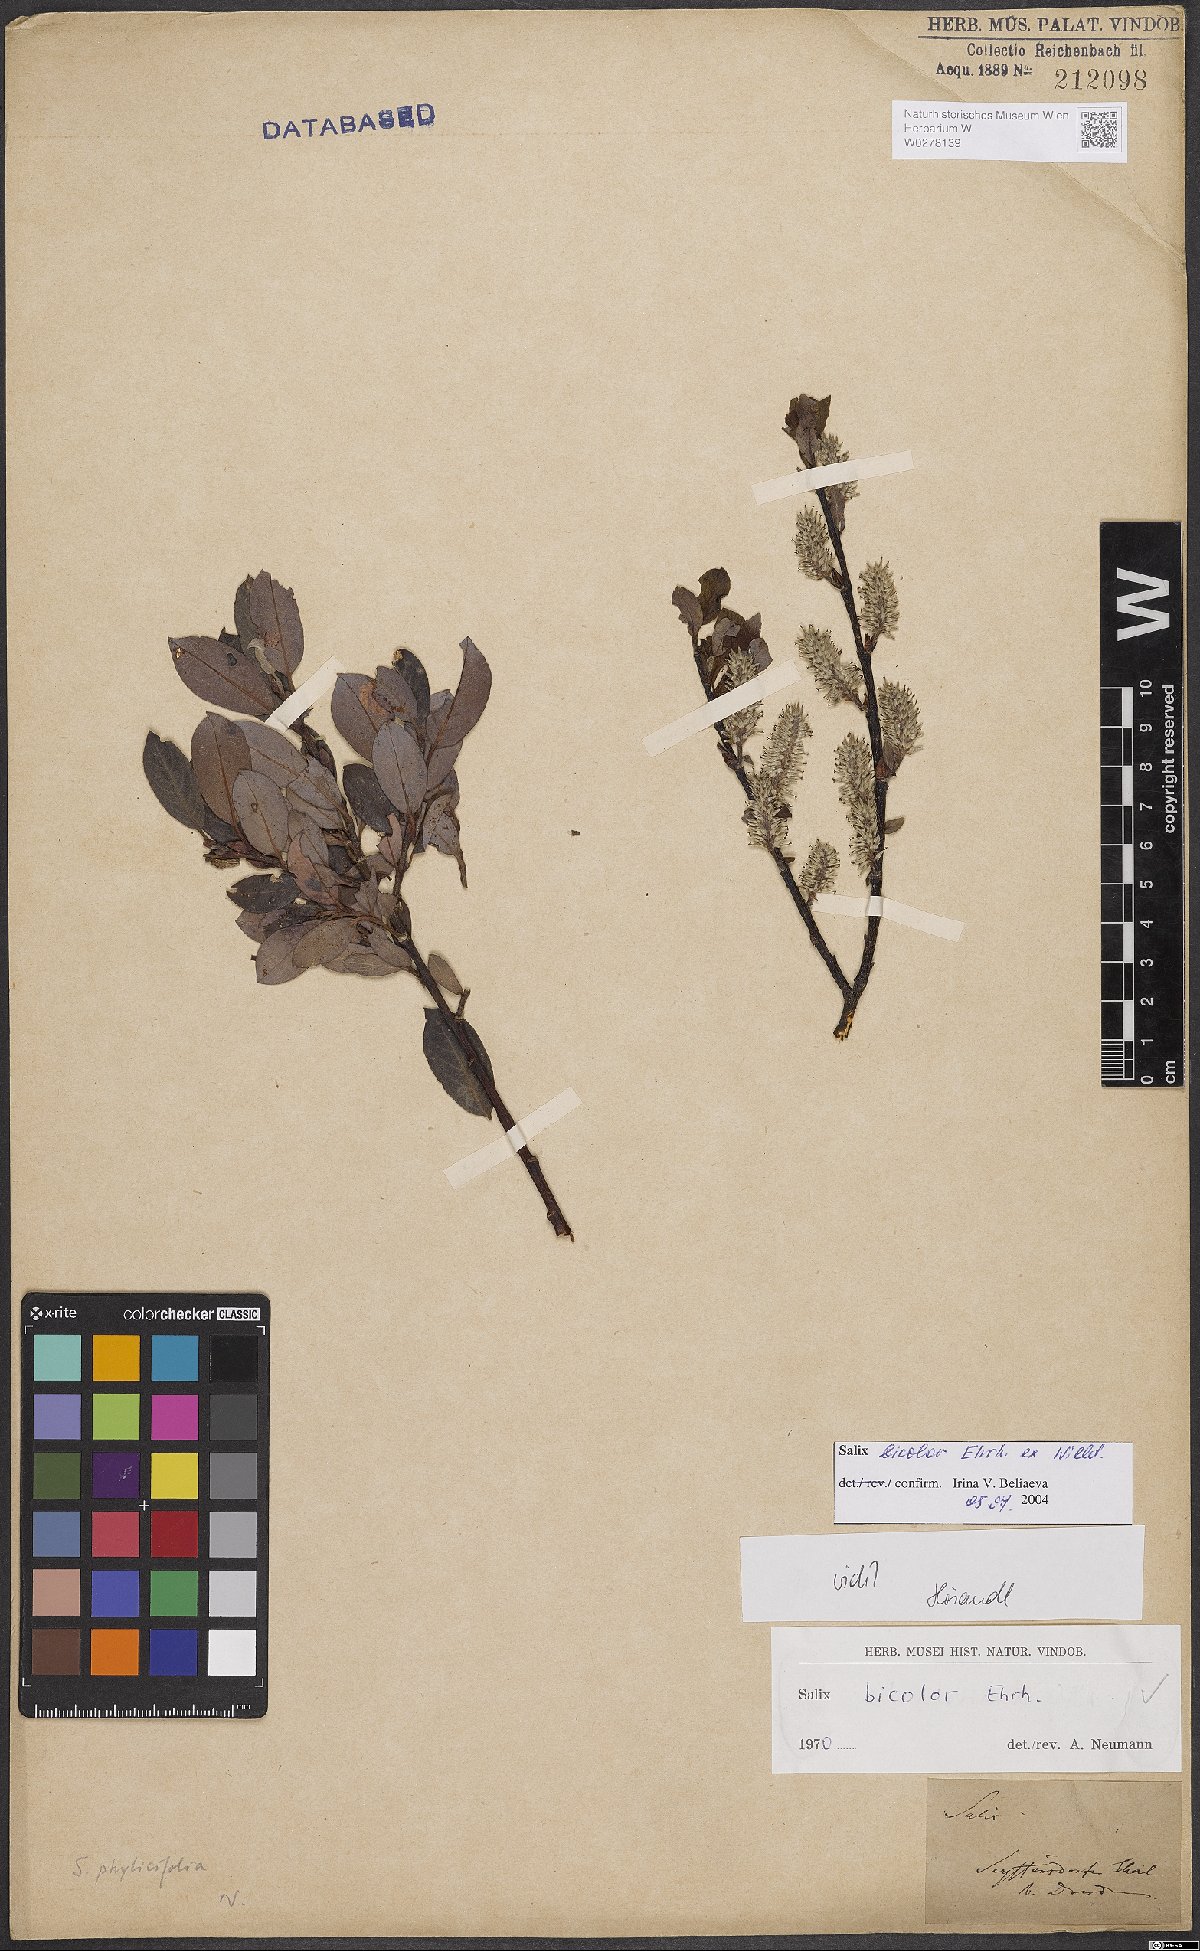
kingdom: Plantae
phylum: Tracheophyta
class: Magnoliopsida
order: Malpighiales
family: Salicaceae
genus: Salix
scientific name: Salix bicolor
